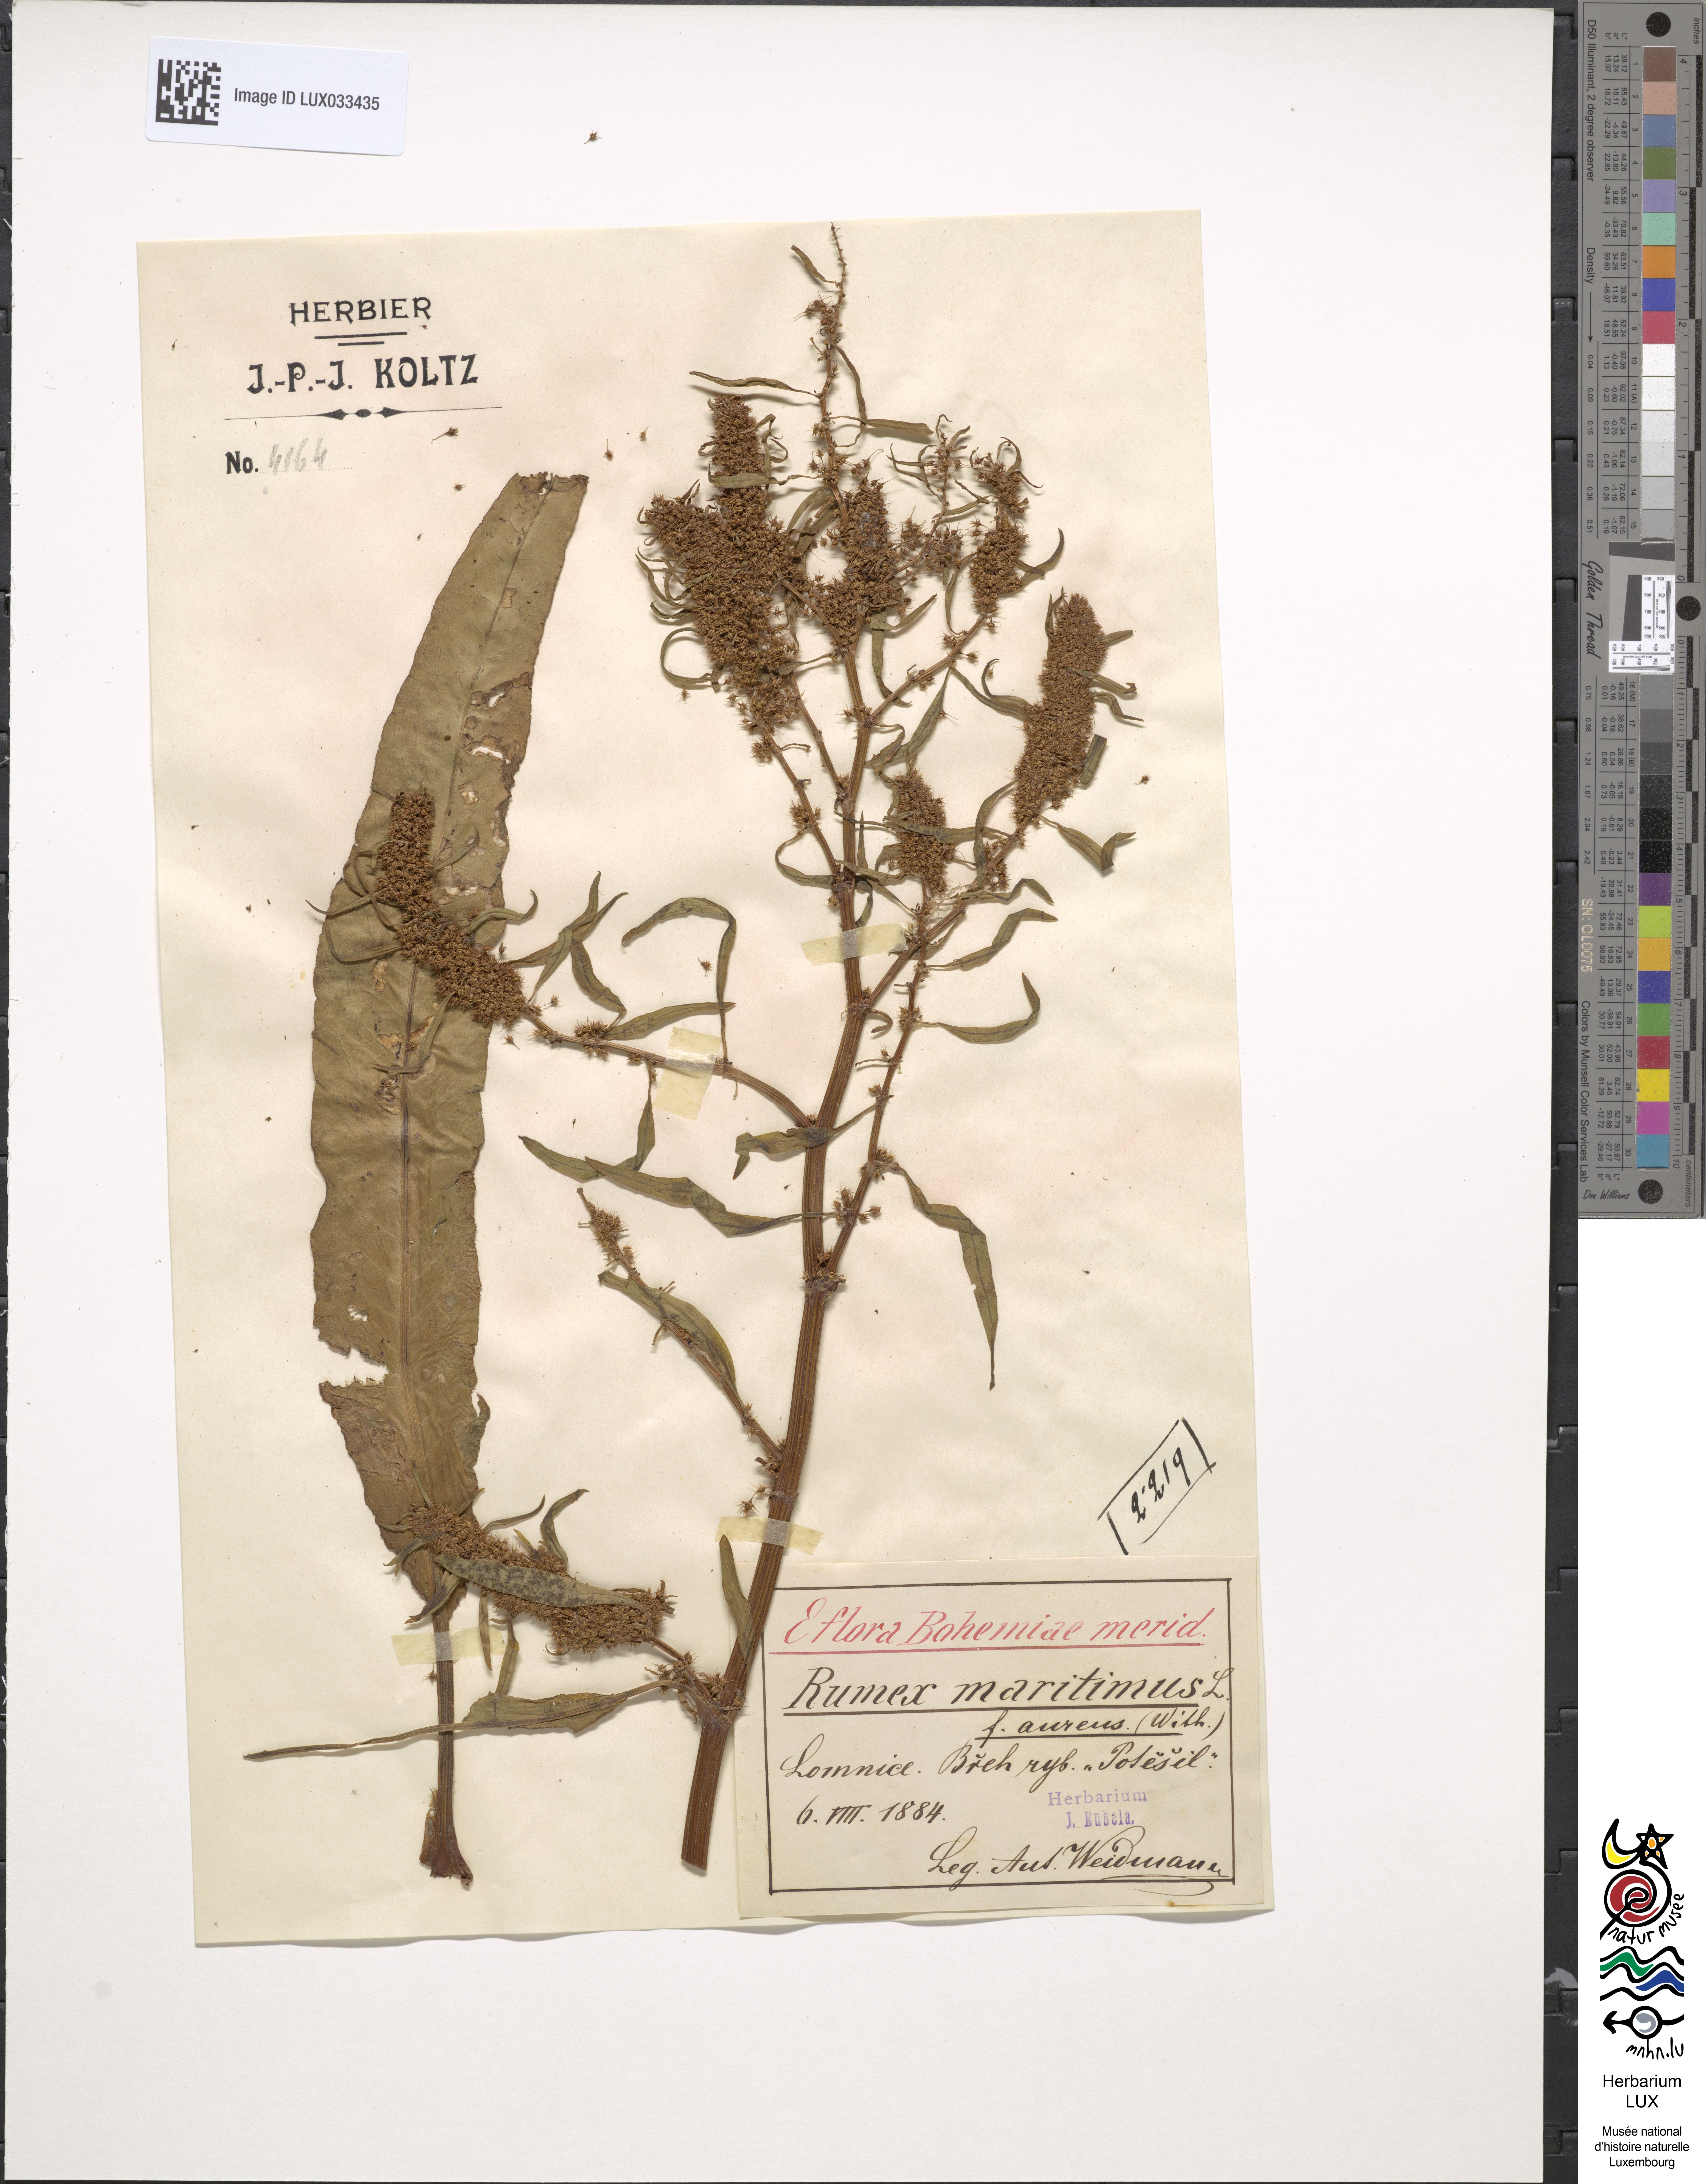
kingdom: Plantae
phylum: Tracheophyta
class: Magnoliopsida
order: Caryophyllales
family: Polygonaceae
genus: Rumex
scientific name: Rumex maritimus
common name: Golden dock
